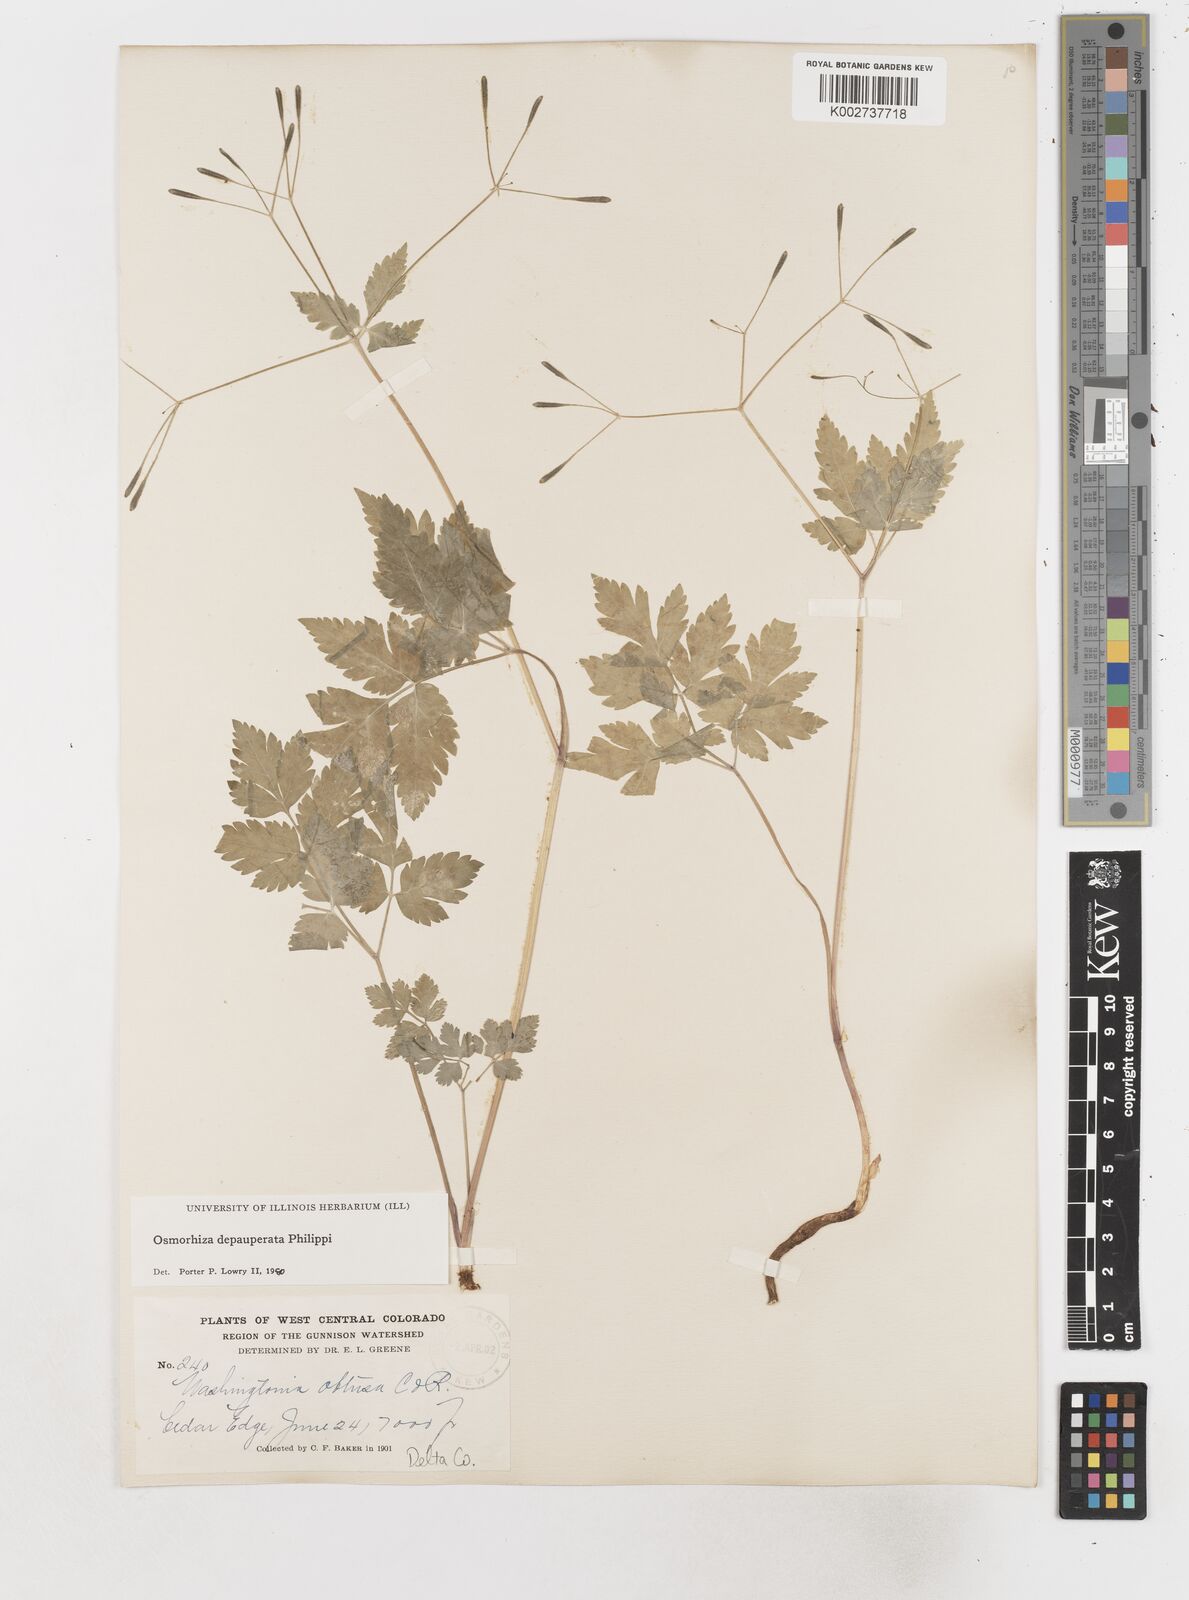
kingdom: Plantae
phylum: Tracheophyta
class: Magnoliopsida
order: Apiales
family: Apiaceae
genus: Osmorhiza
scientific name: Osmorhiza depauperata
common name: Blunt sweet cicely
